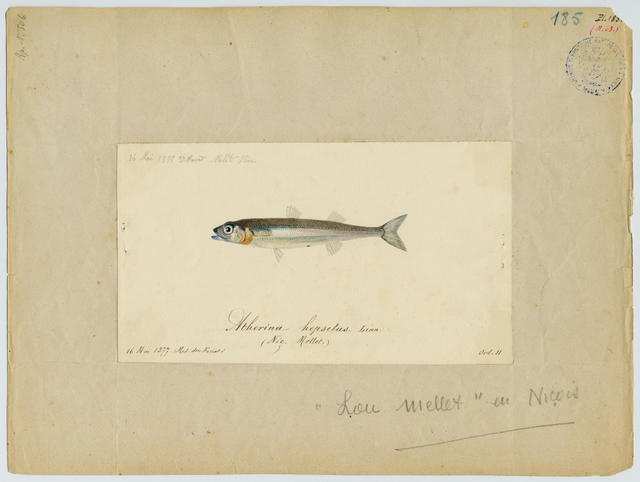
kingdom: Animalia
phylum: Chordata
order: Atheriniformes
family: Atherinidae
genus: Atherina
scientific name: Atherina hepsetus
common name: Mediterranean sand smelt
